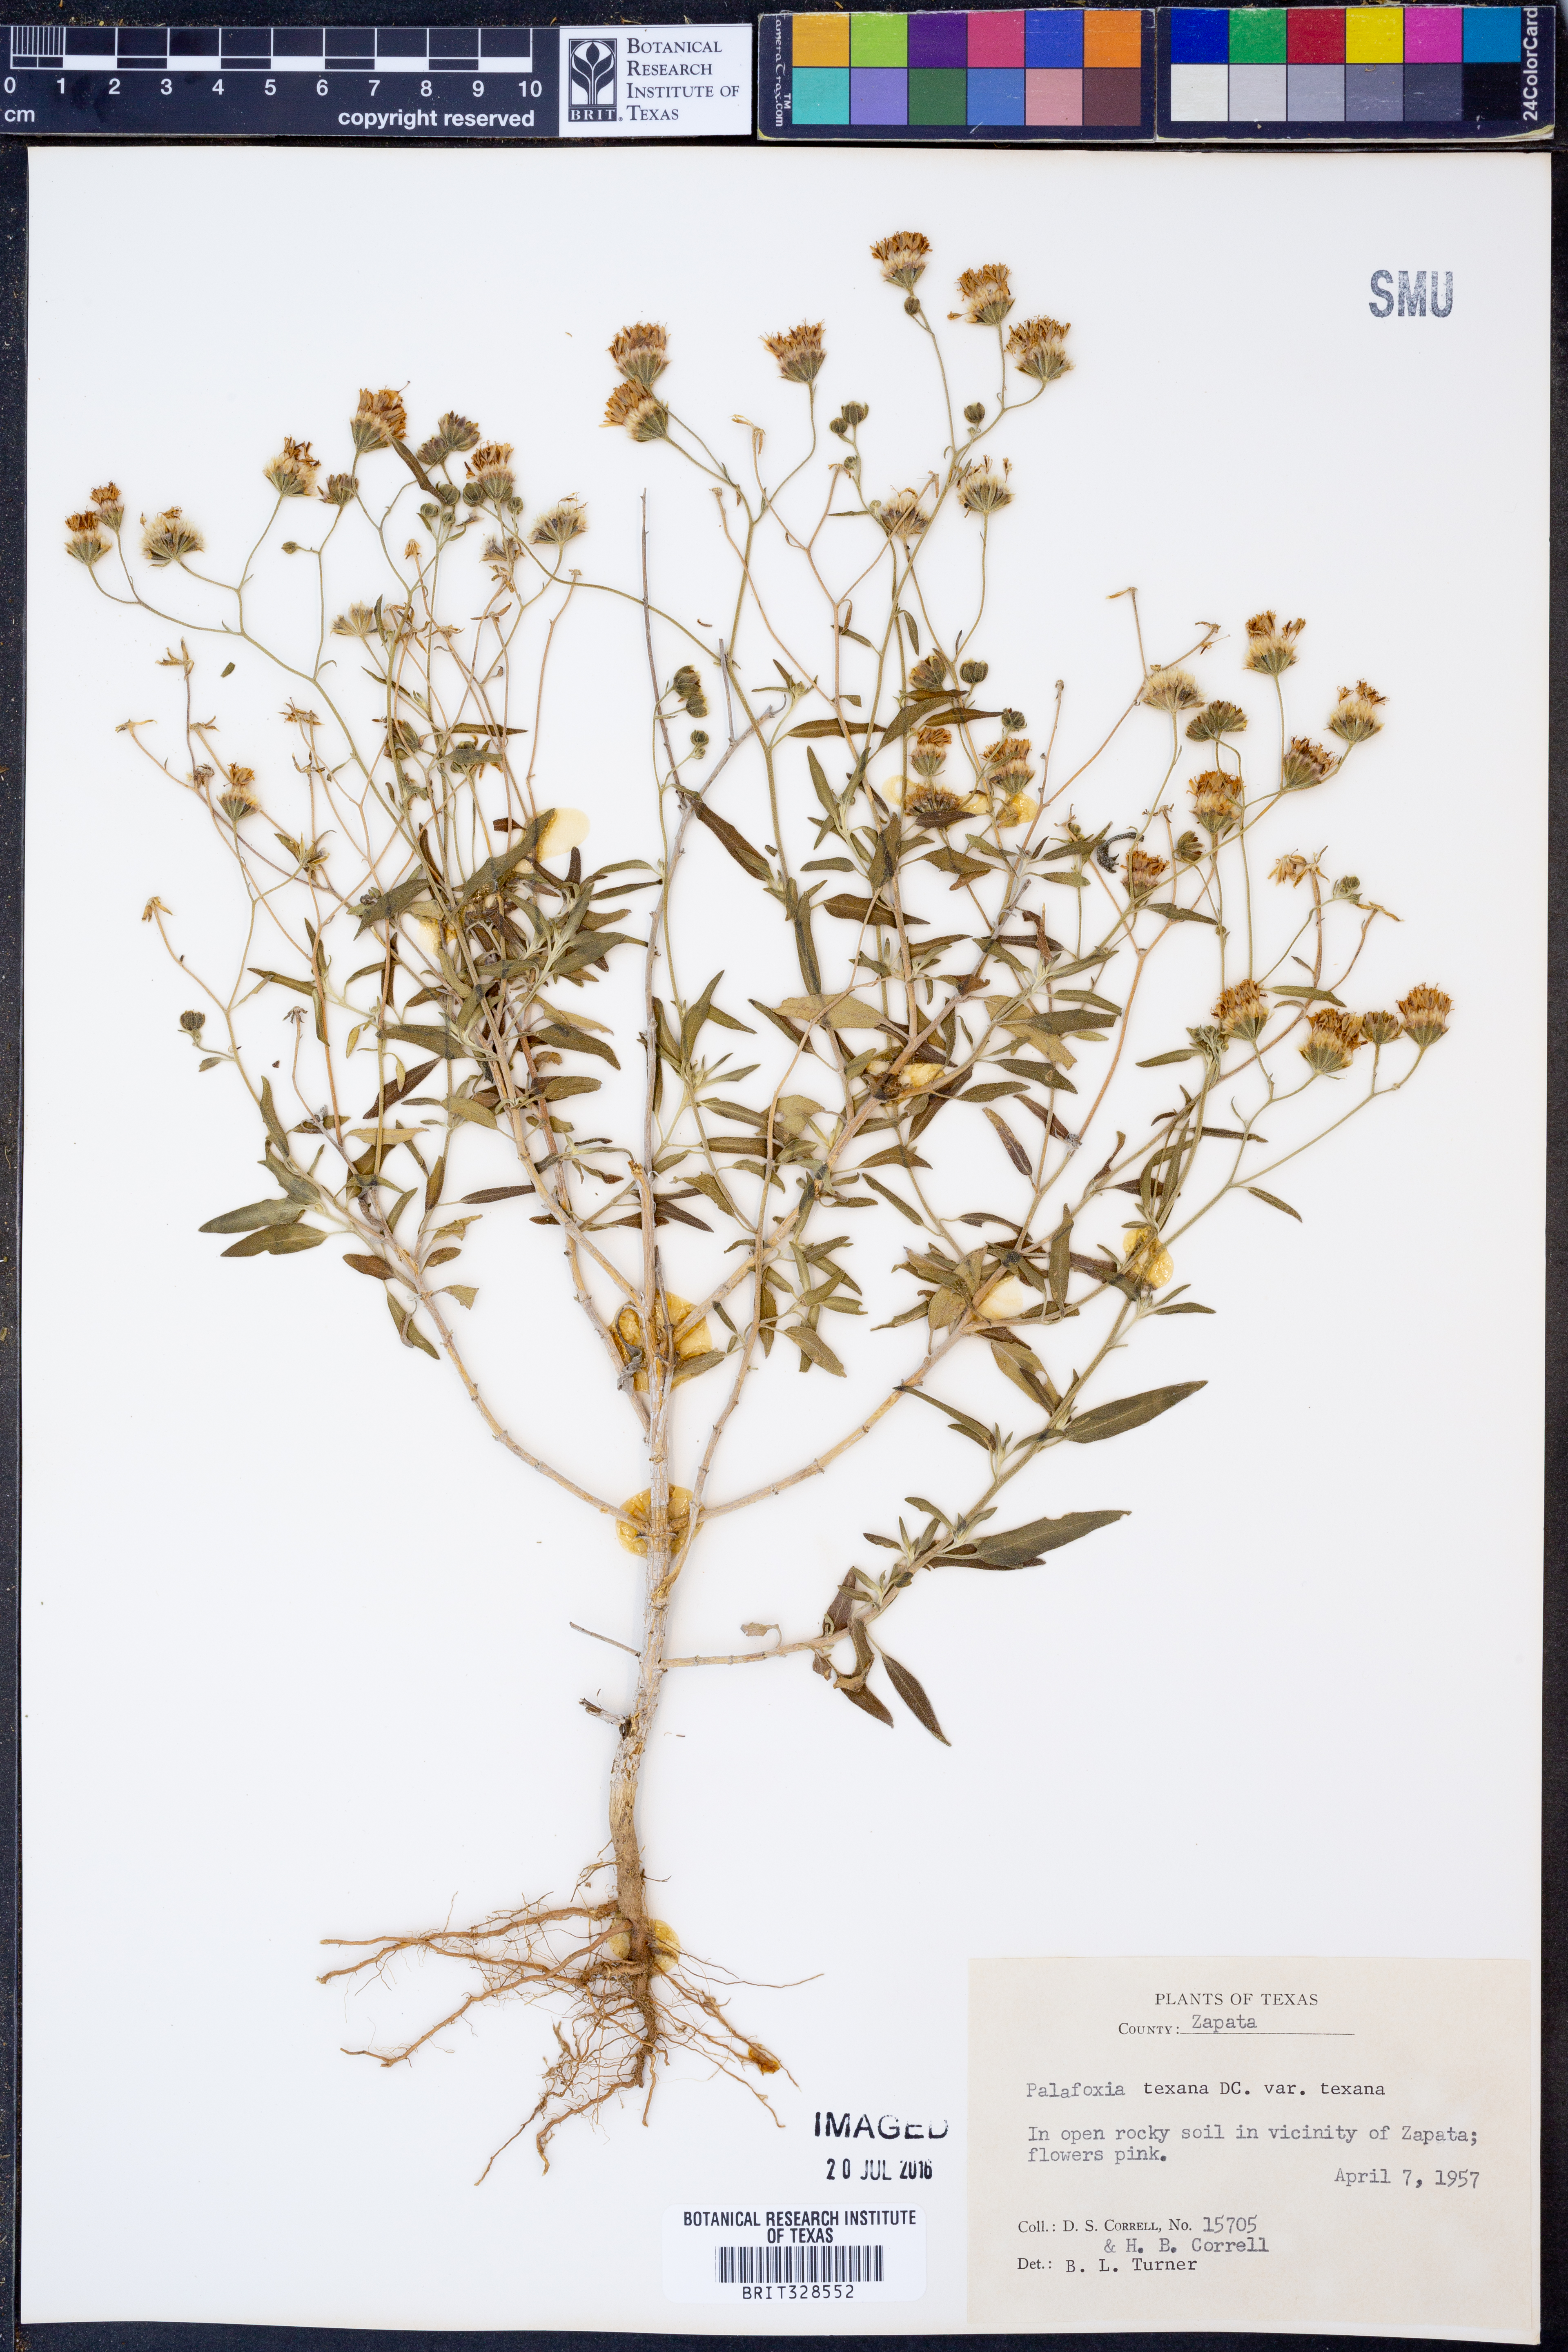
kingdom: Plantae
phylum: Tracheophyta
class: Magnoliopsida
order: Asterales
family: Asteraceae
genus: Palafoxia
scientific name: Palafoxia texana
